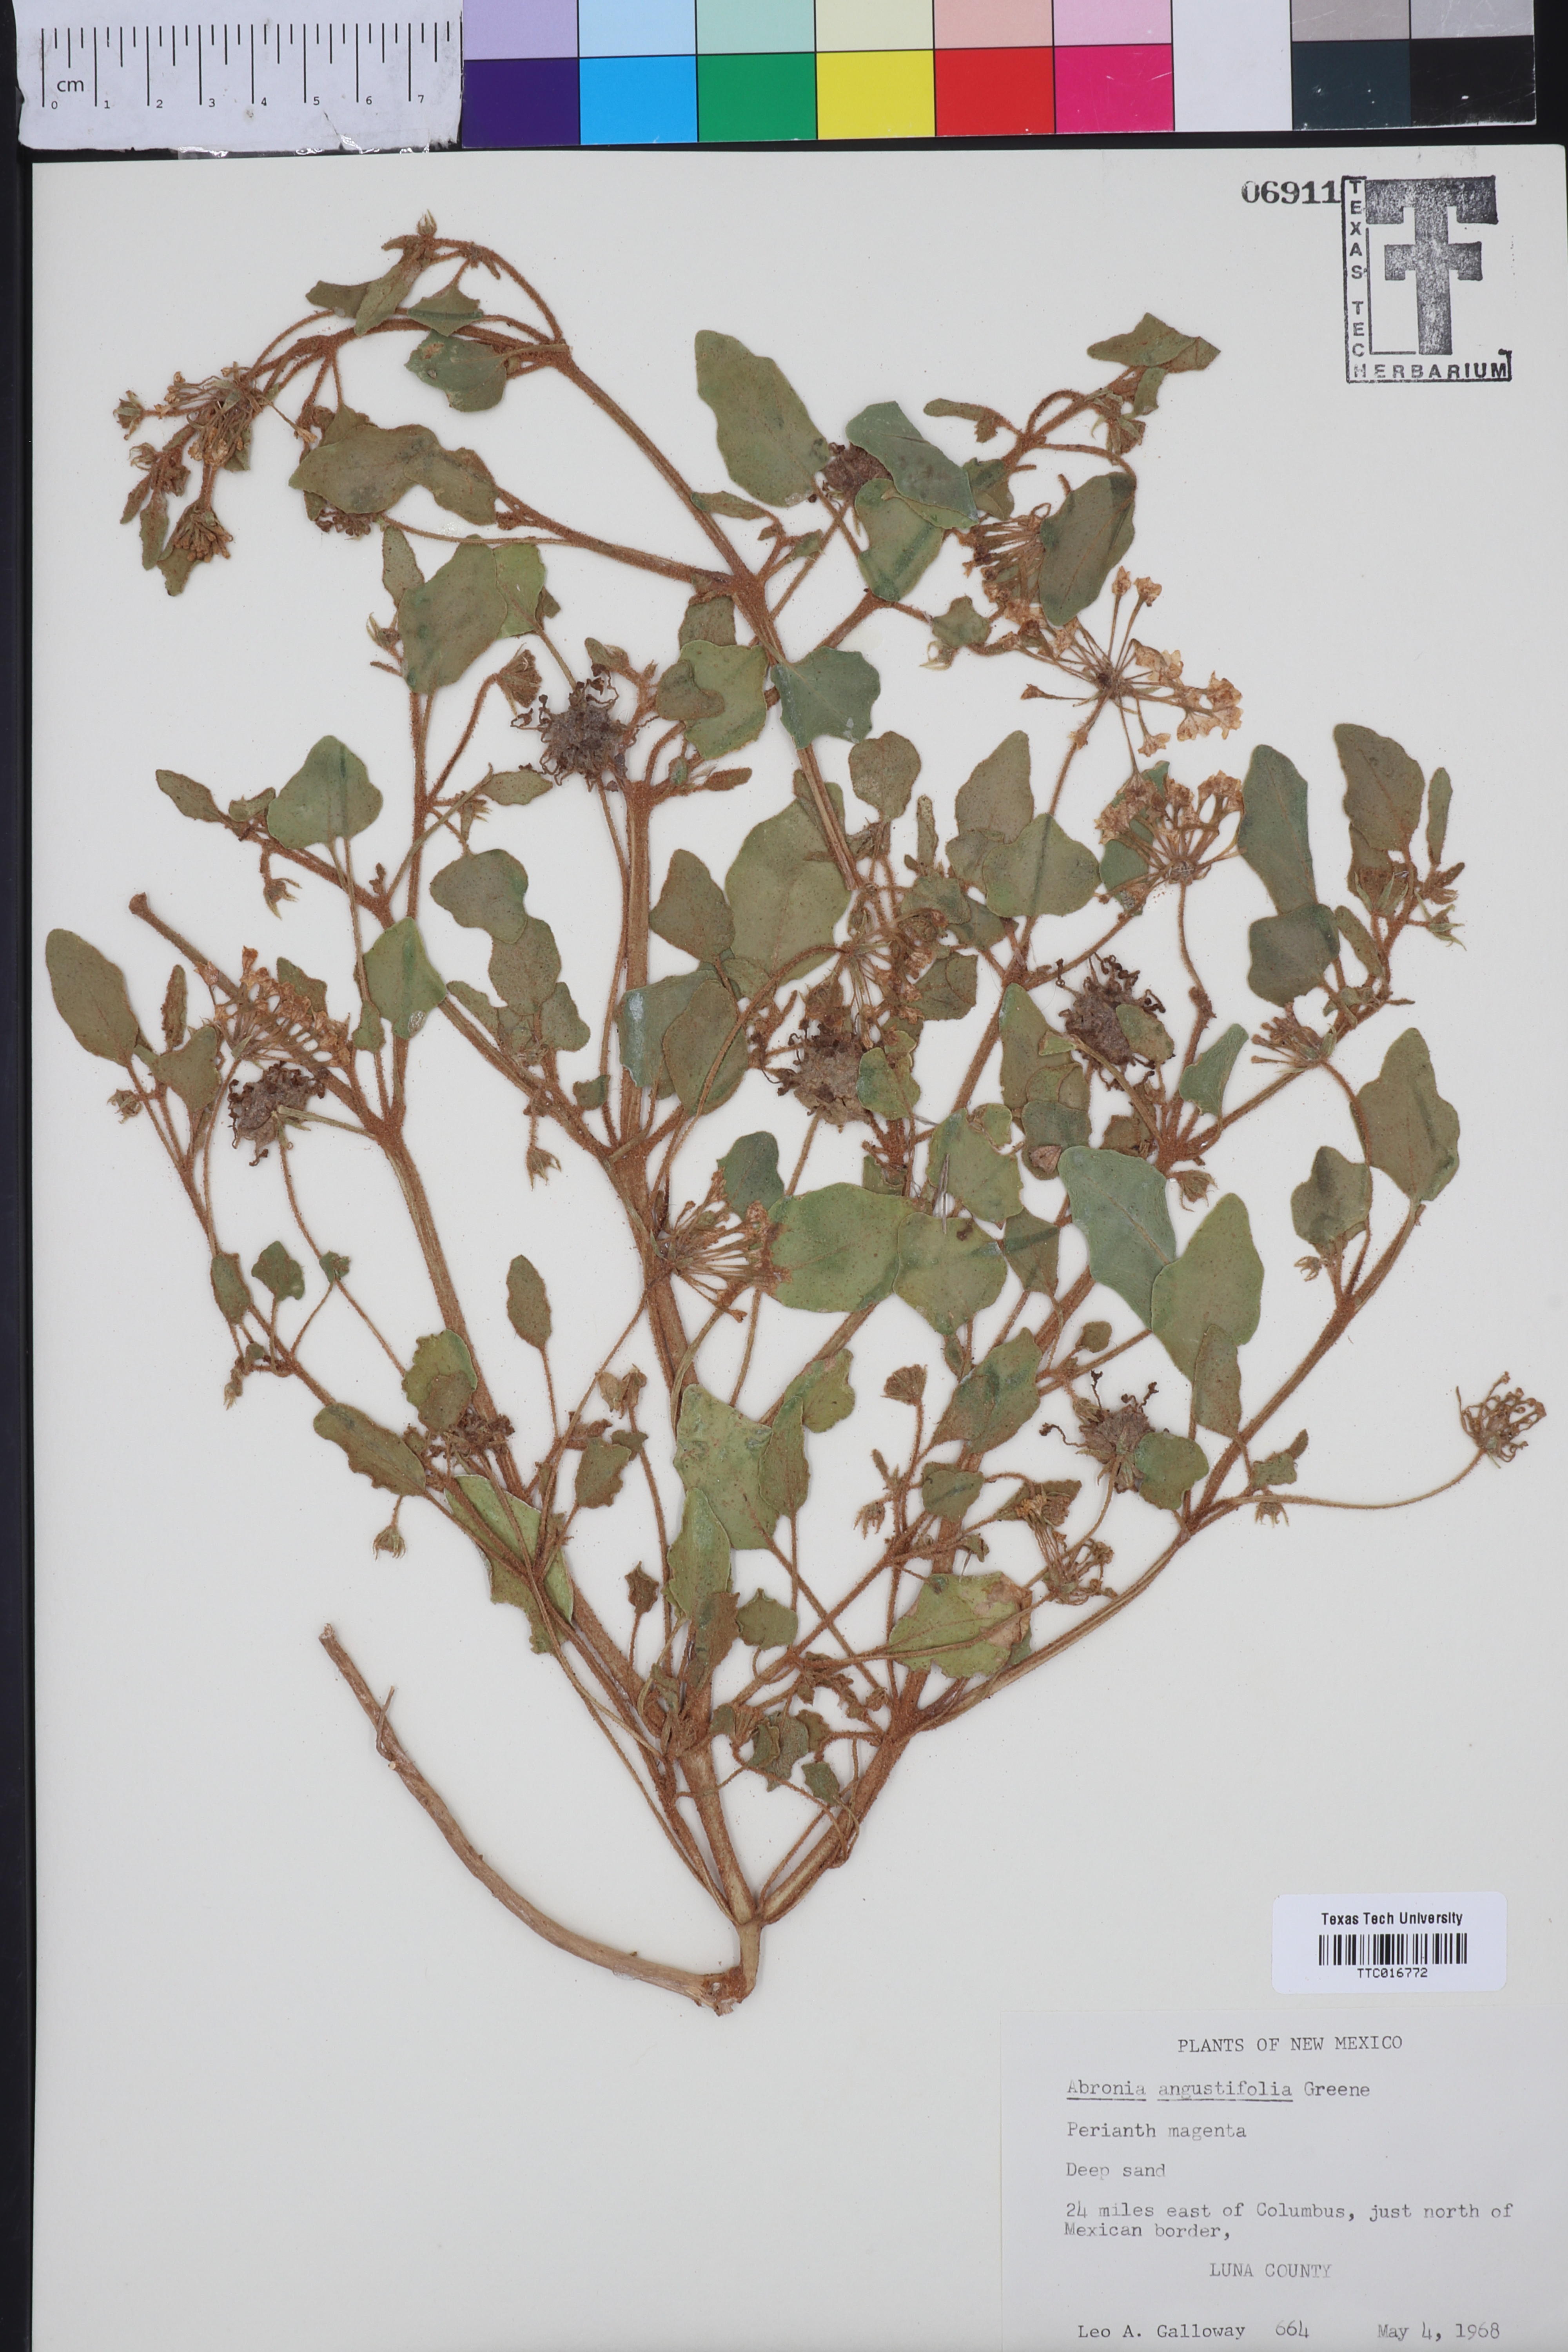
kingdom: Plantae
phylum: Tracheophyta
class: Magnoliopsida
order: Caryophyllales
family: Nyctaginaceae
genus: Abronia
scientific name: Abronia angustifolia
